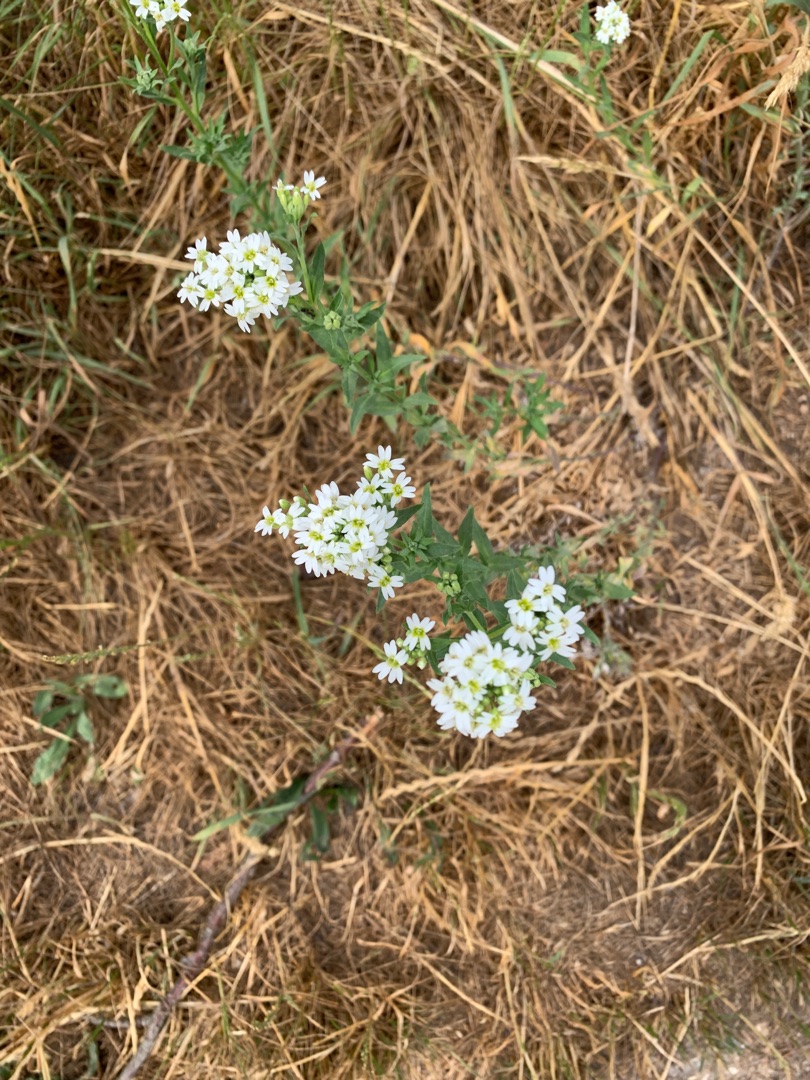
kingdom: Plantae
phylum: Tracheophyta
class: Magnoliopsida
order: Brassicales
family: Brassicaceae
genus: Berteroa
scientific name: Berteroa incana
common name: Kløvplade
